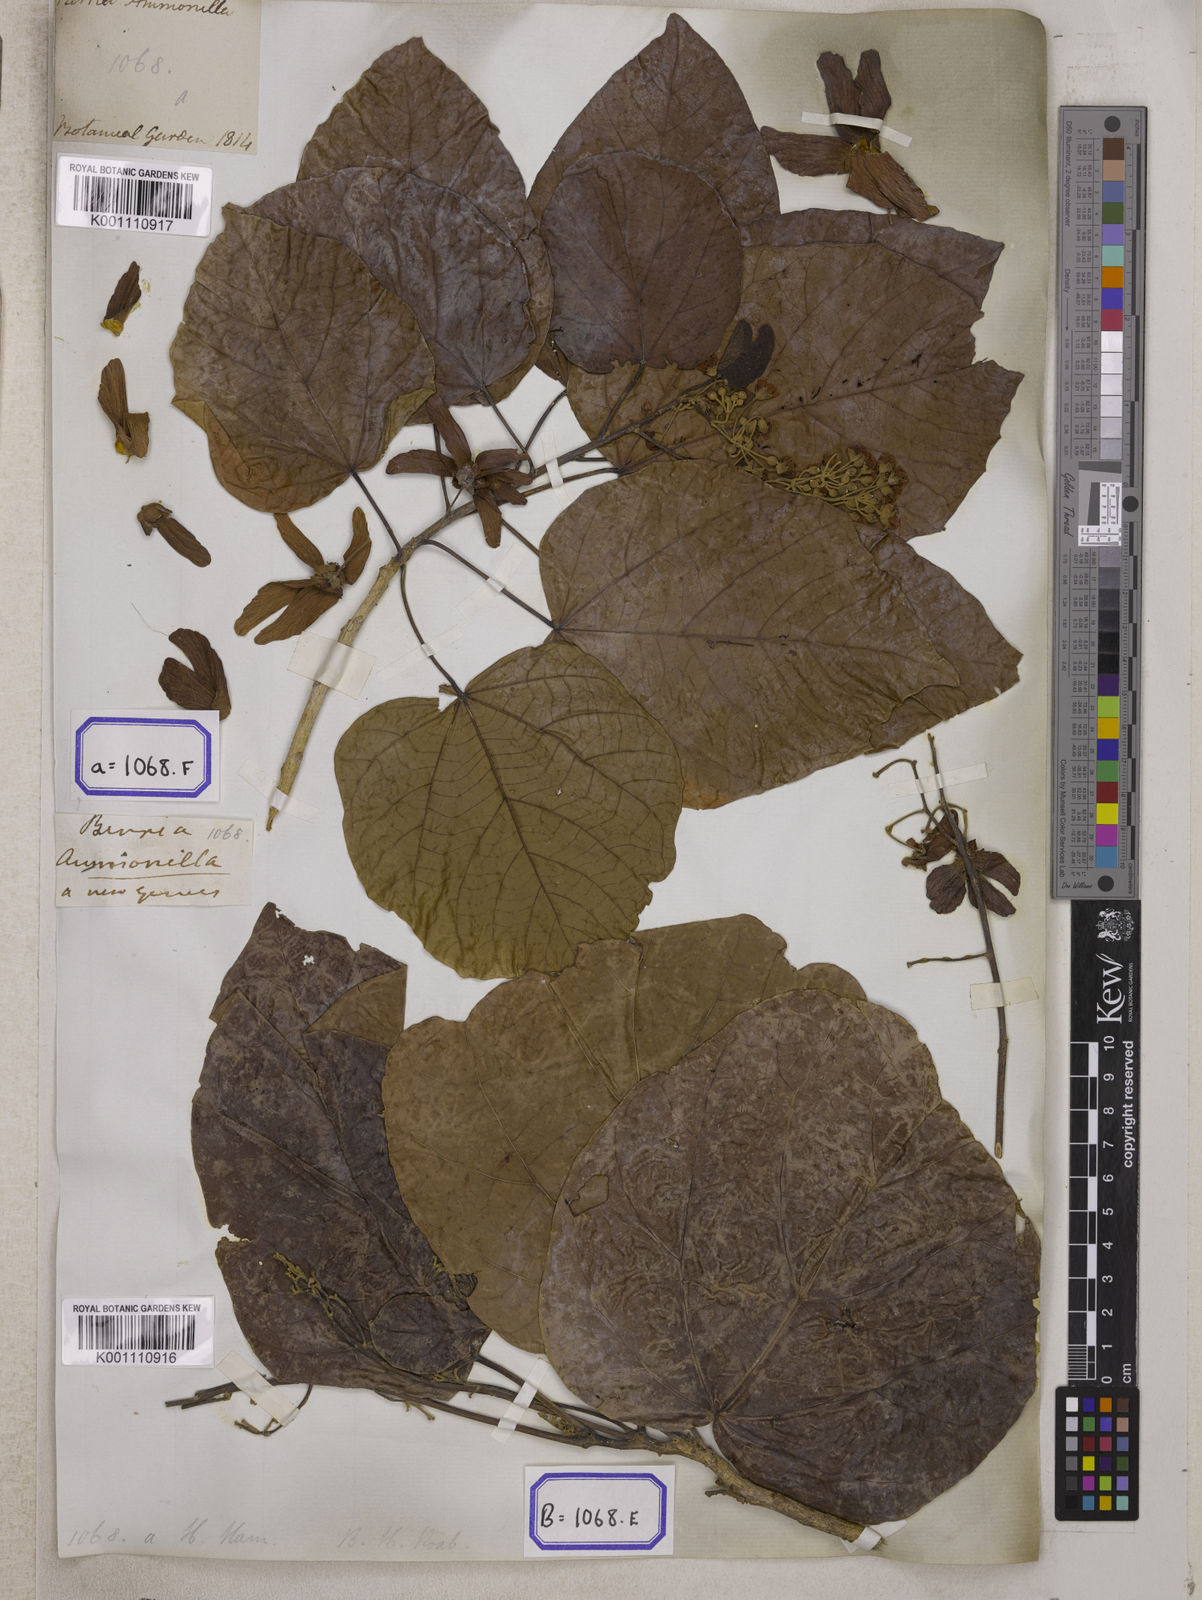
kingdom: Plantae
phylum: Tracheophyta
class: Magnoliopsida
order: Malvales
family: Malvaceae
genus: Berrya
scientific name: Berrya cordifolia
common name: Trincomalee
